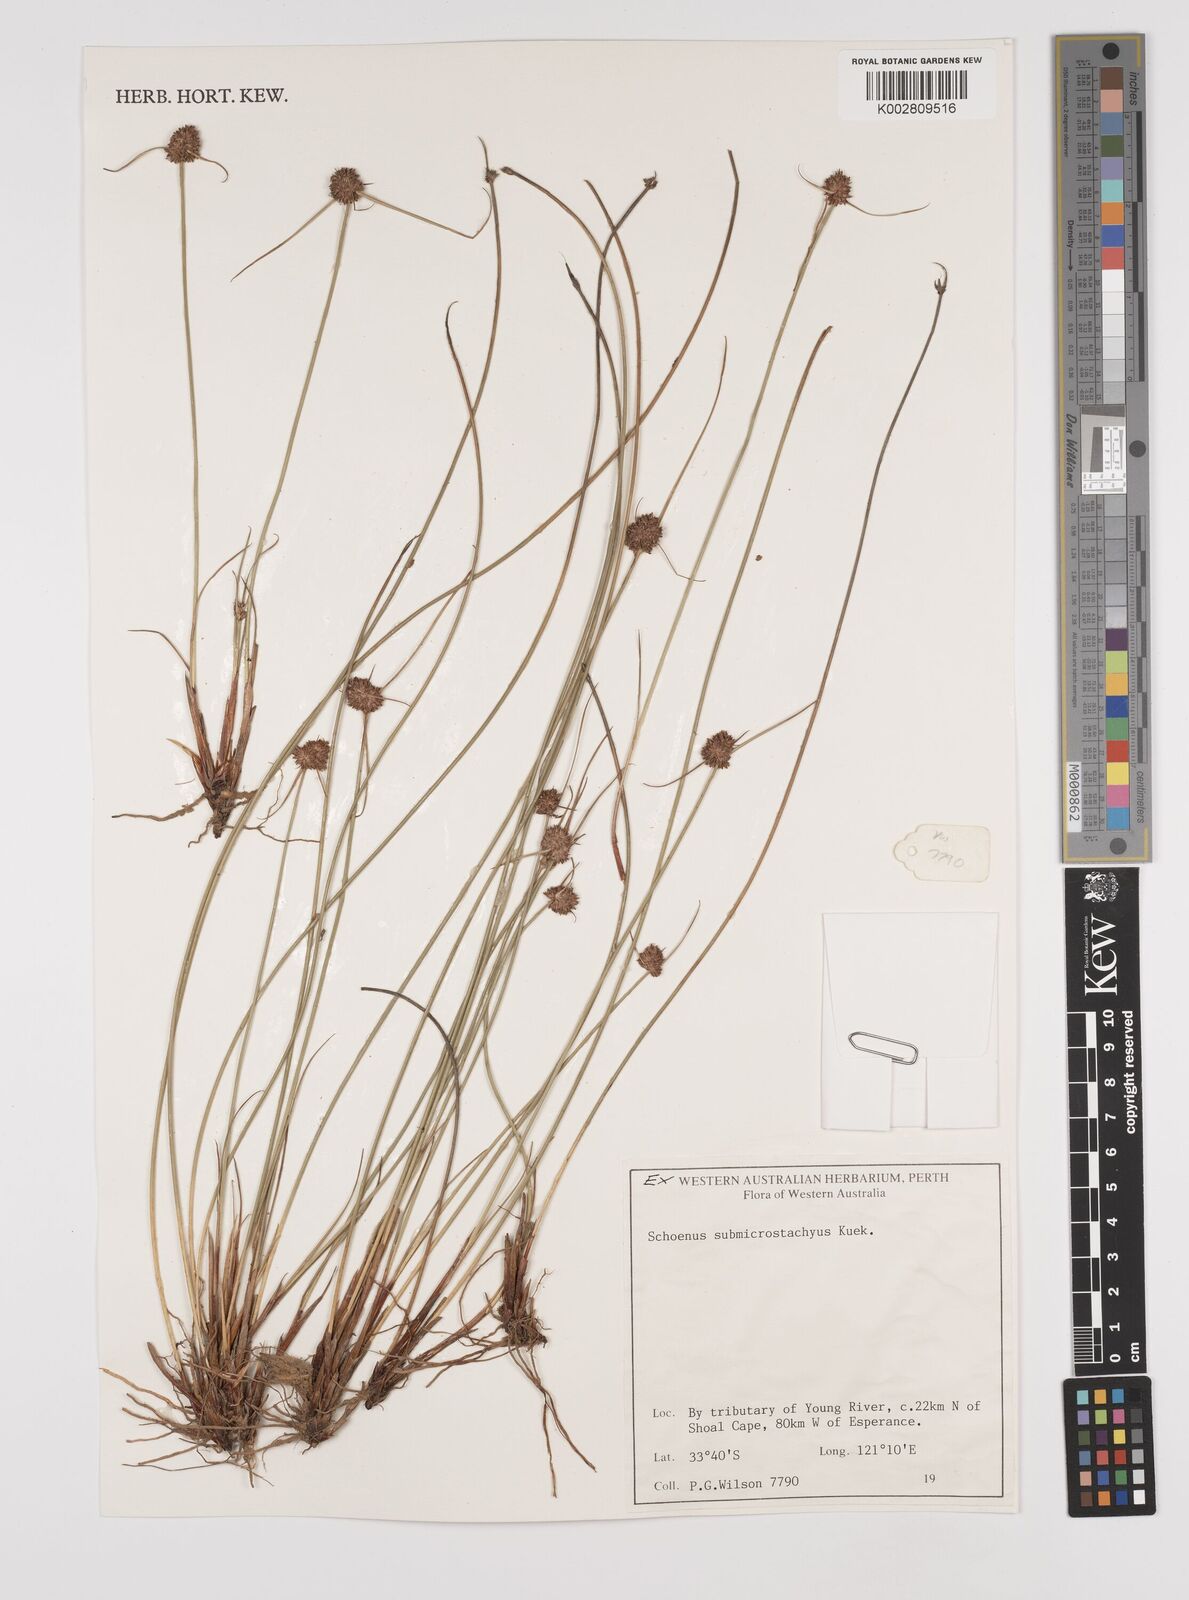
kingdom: Plantae
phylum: Tracheophyta
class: Liliopsida
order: Poales
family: Cyperaceae
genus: Schoenus
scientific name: Schoenus submicrostachyus
